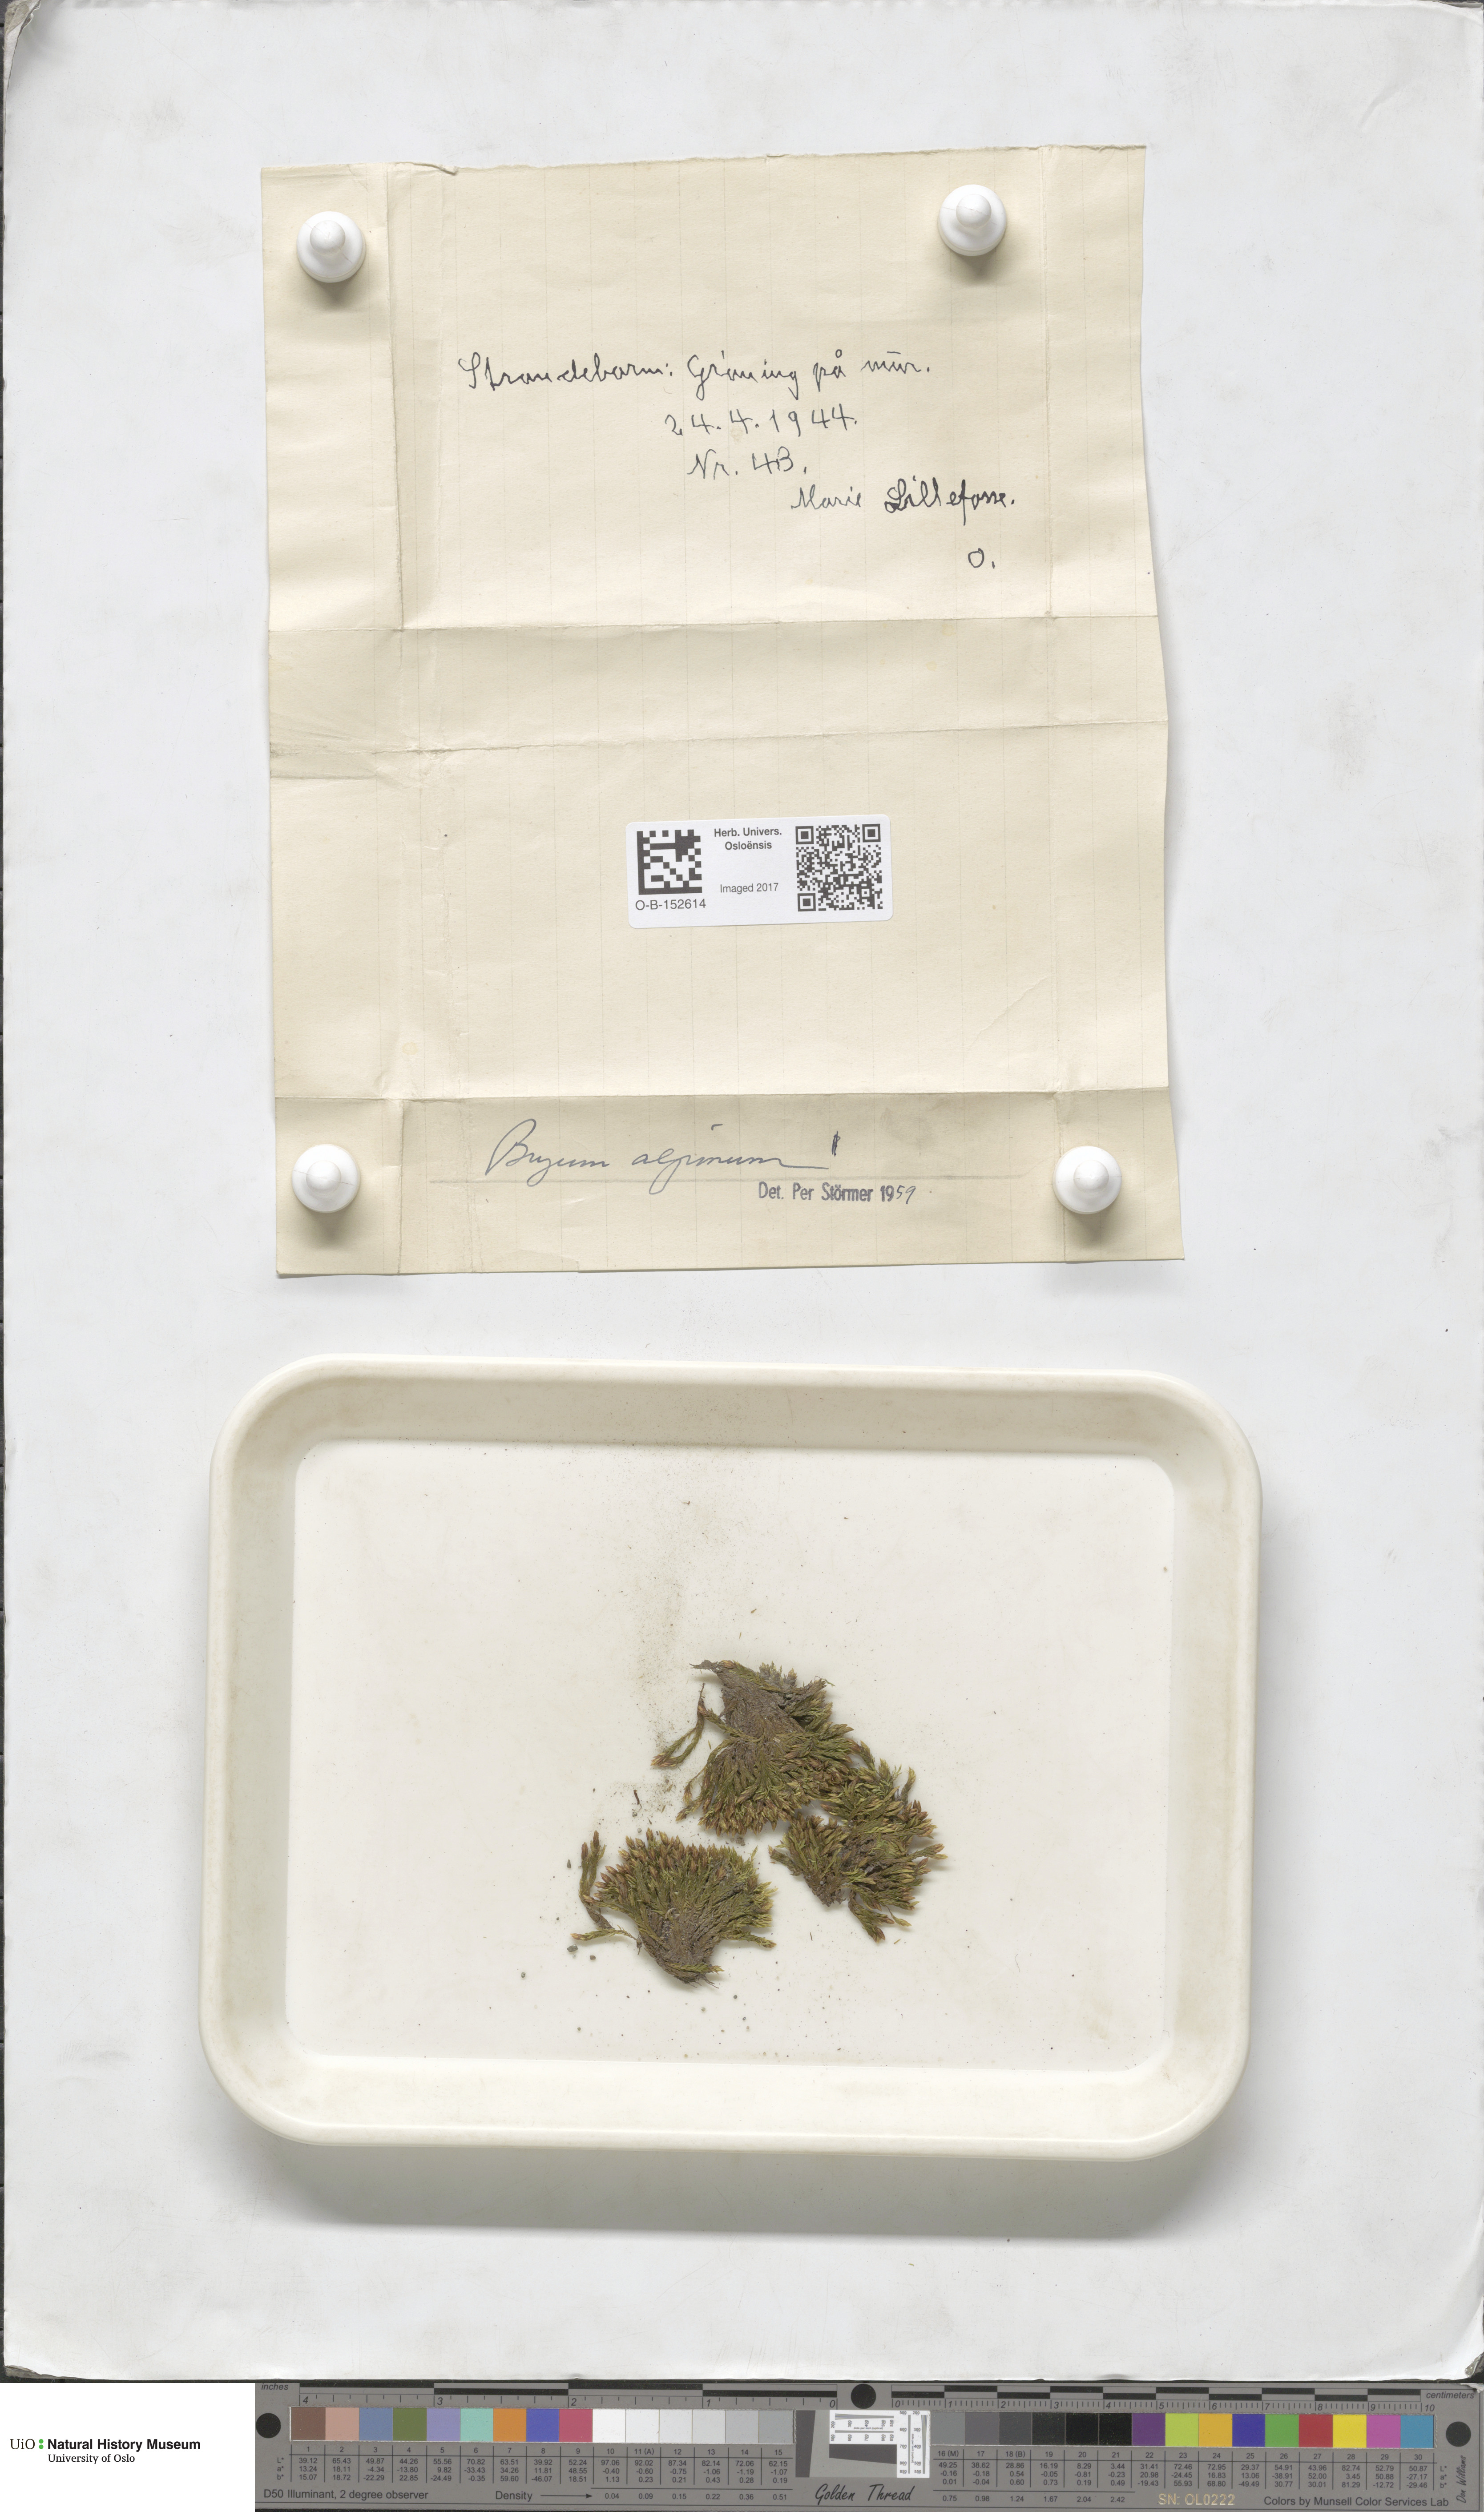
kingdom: Plantae
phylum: Bryophyta
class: Bryopsida
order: Bryales
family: Bryaceae
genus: Imbribryum
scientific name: Imbribryum alpinum
